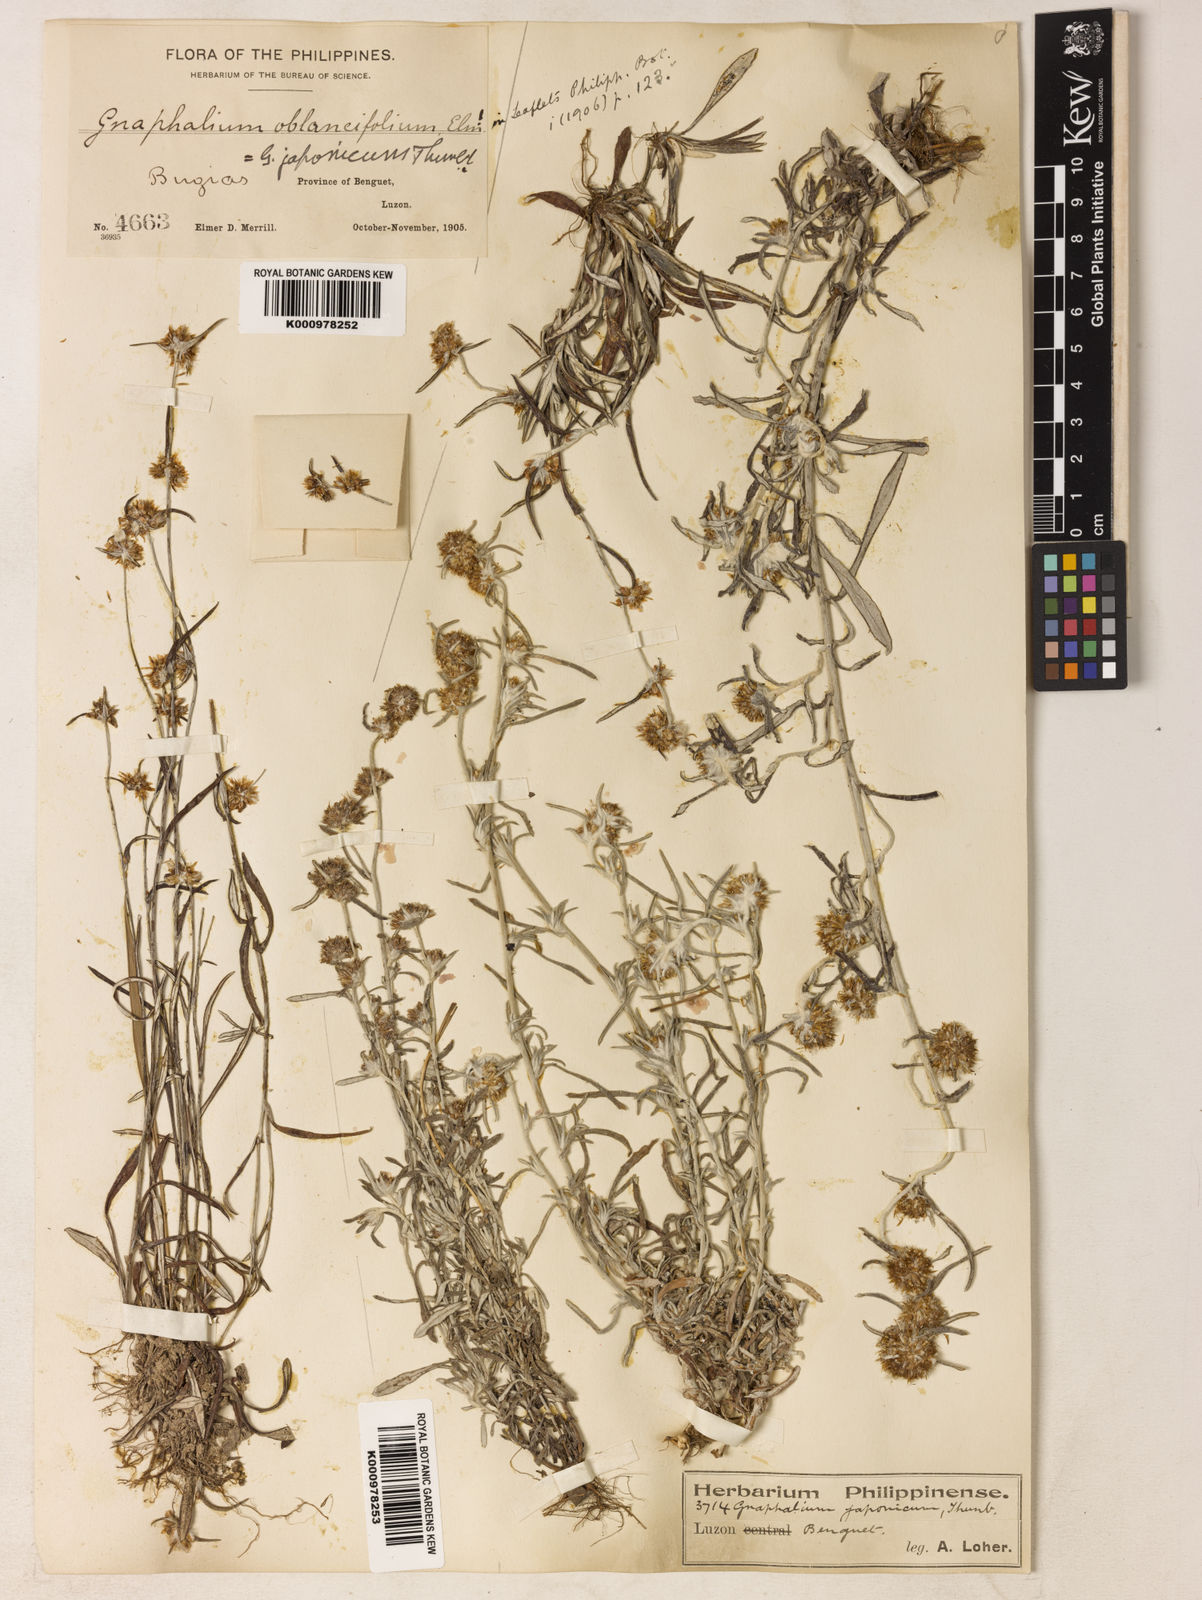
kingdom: Plantae
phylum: Tracheophyta
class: Magnoliopsida
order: Asterales
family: Asteraceae
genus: Euchiton
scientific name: Euchiton
